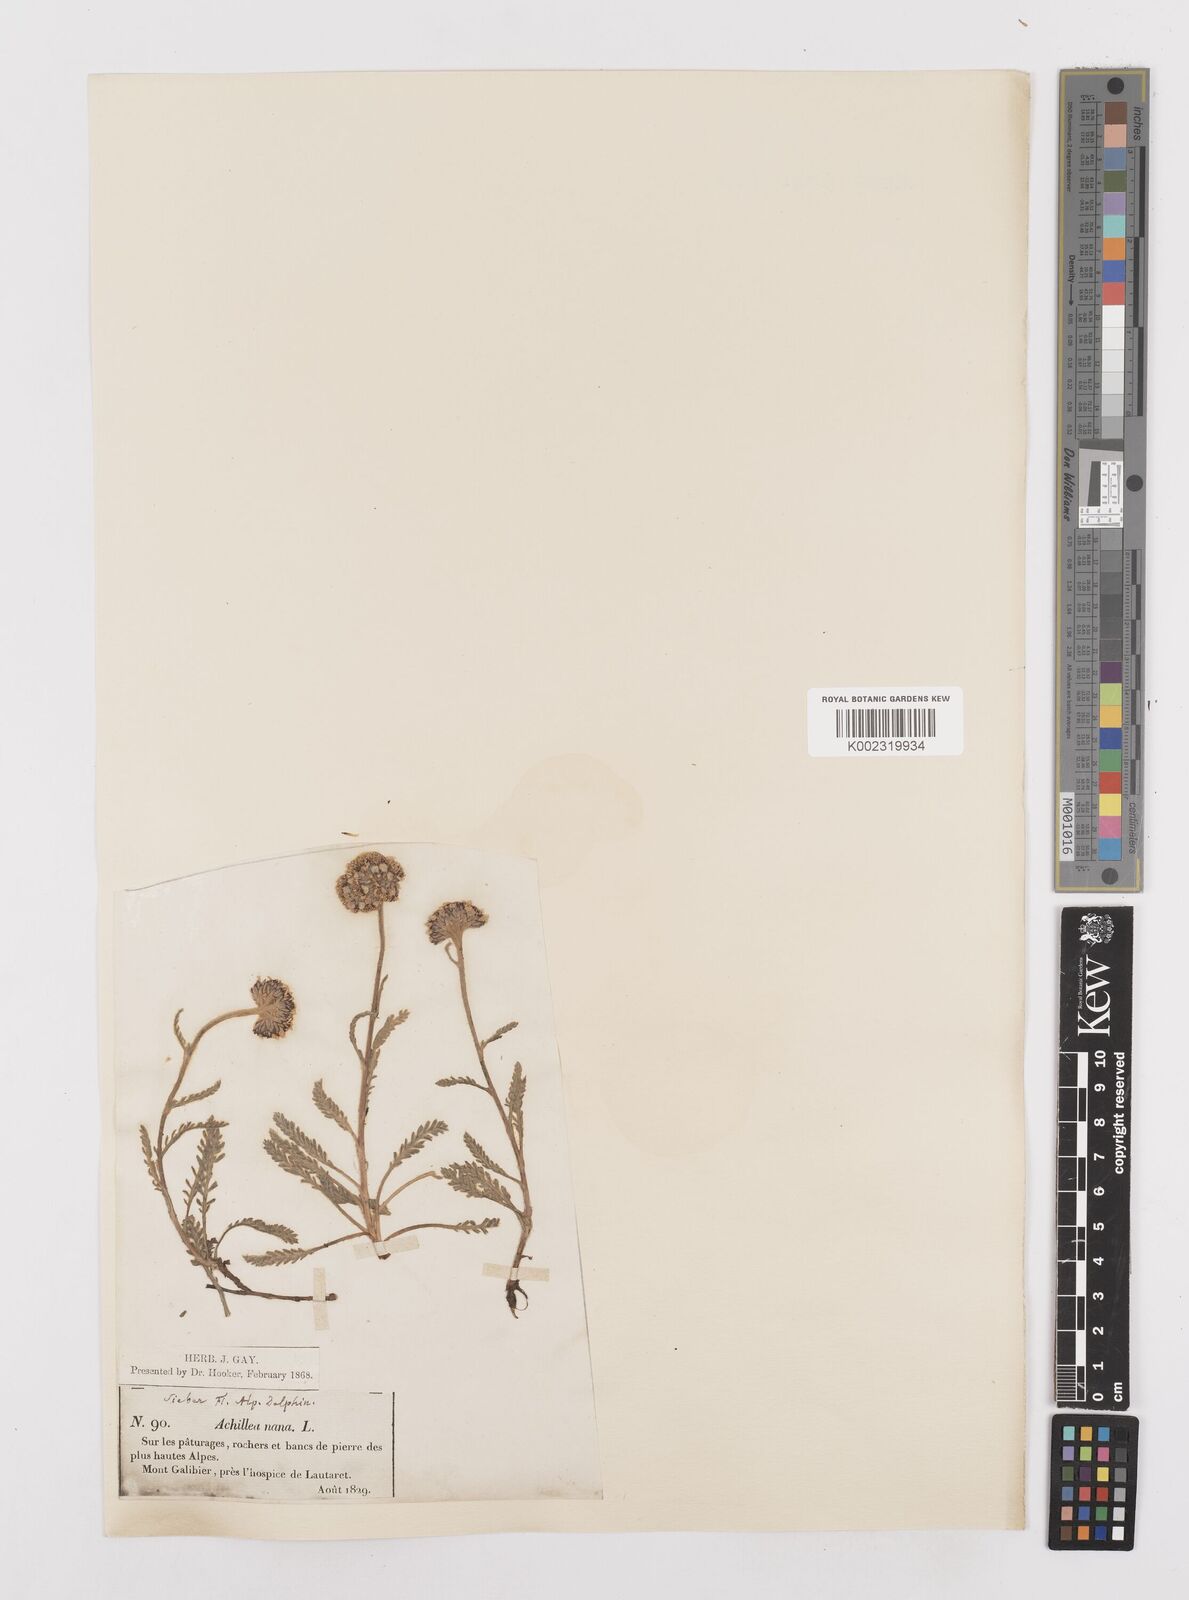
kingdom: Plantae
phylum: Tracheophyta
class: Magnoliopsida
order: Asterales
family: Asteraceae
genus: Achillea
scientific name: Achillea
